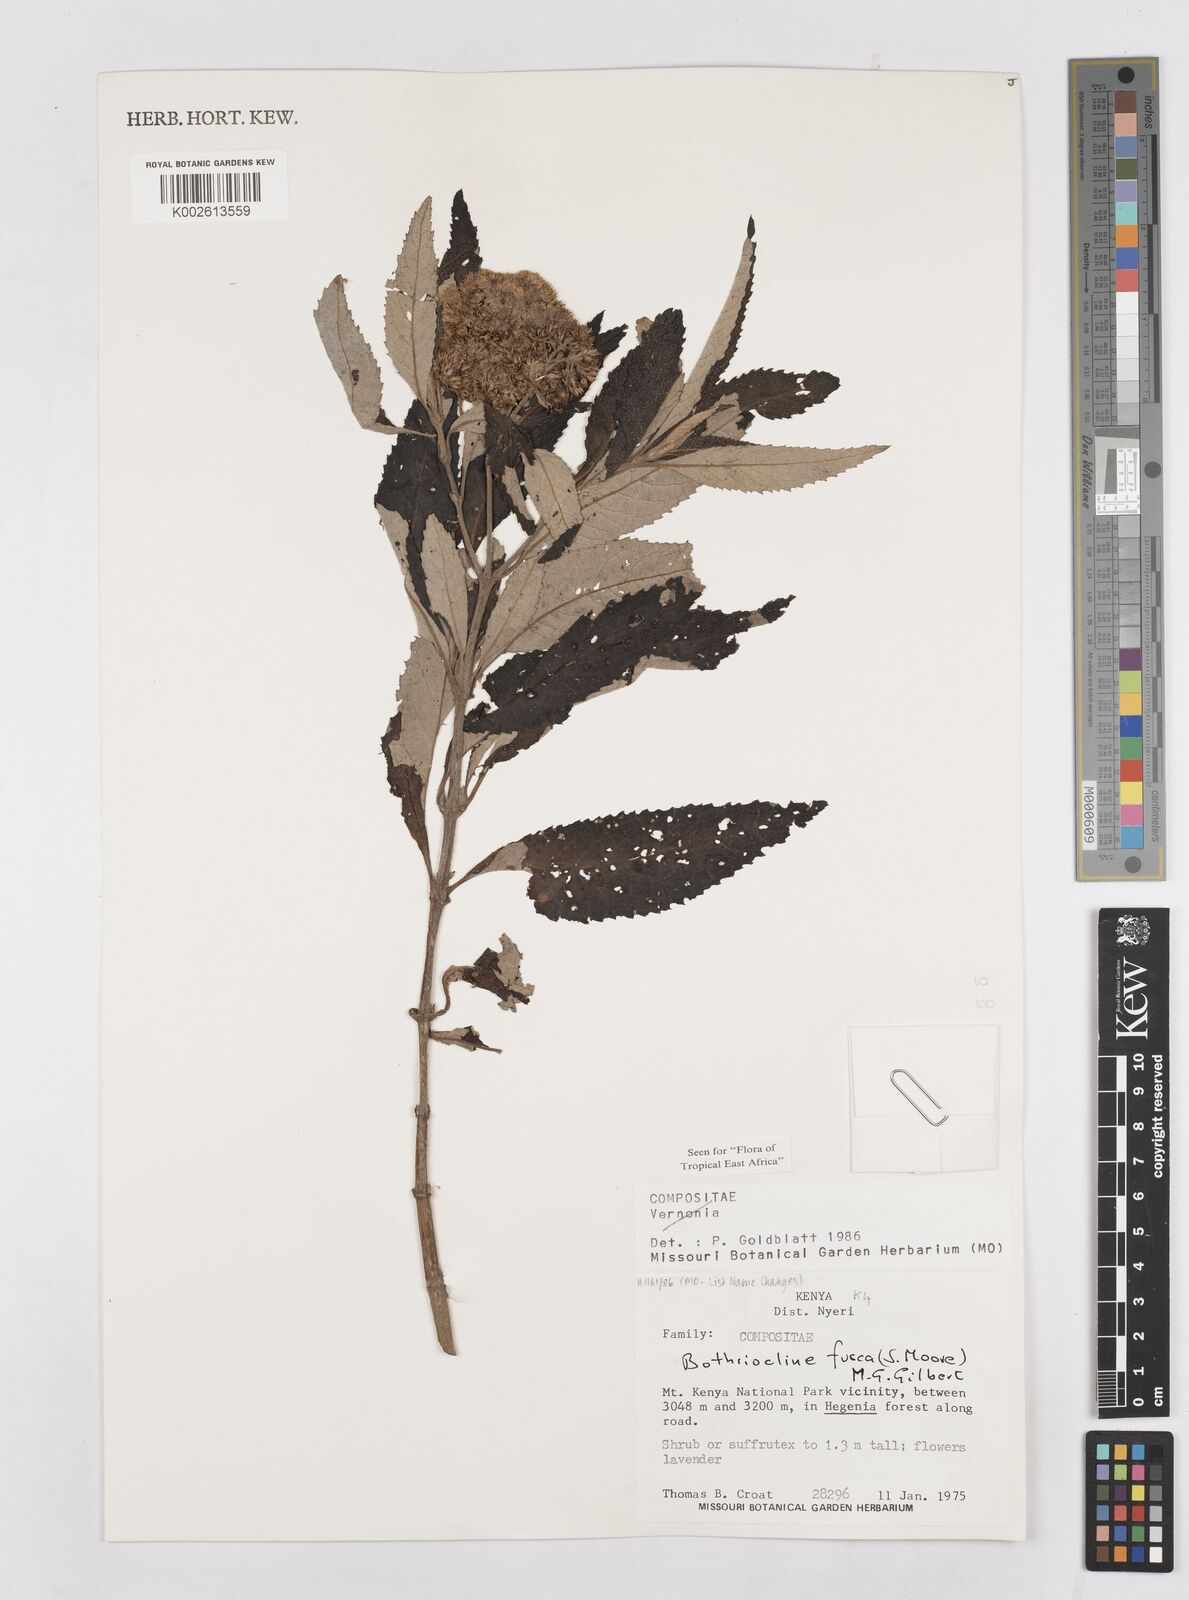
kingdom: Plantae
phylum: Tracheophyta
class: Magnoliopsida
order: Asterales
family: Asteraceae
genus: Bothriocline
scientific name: Bothriocline fusca
